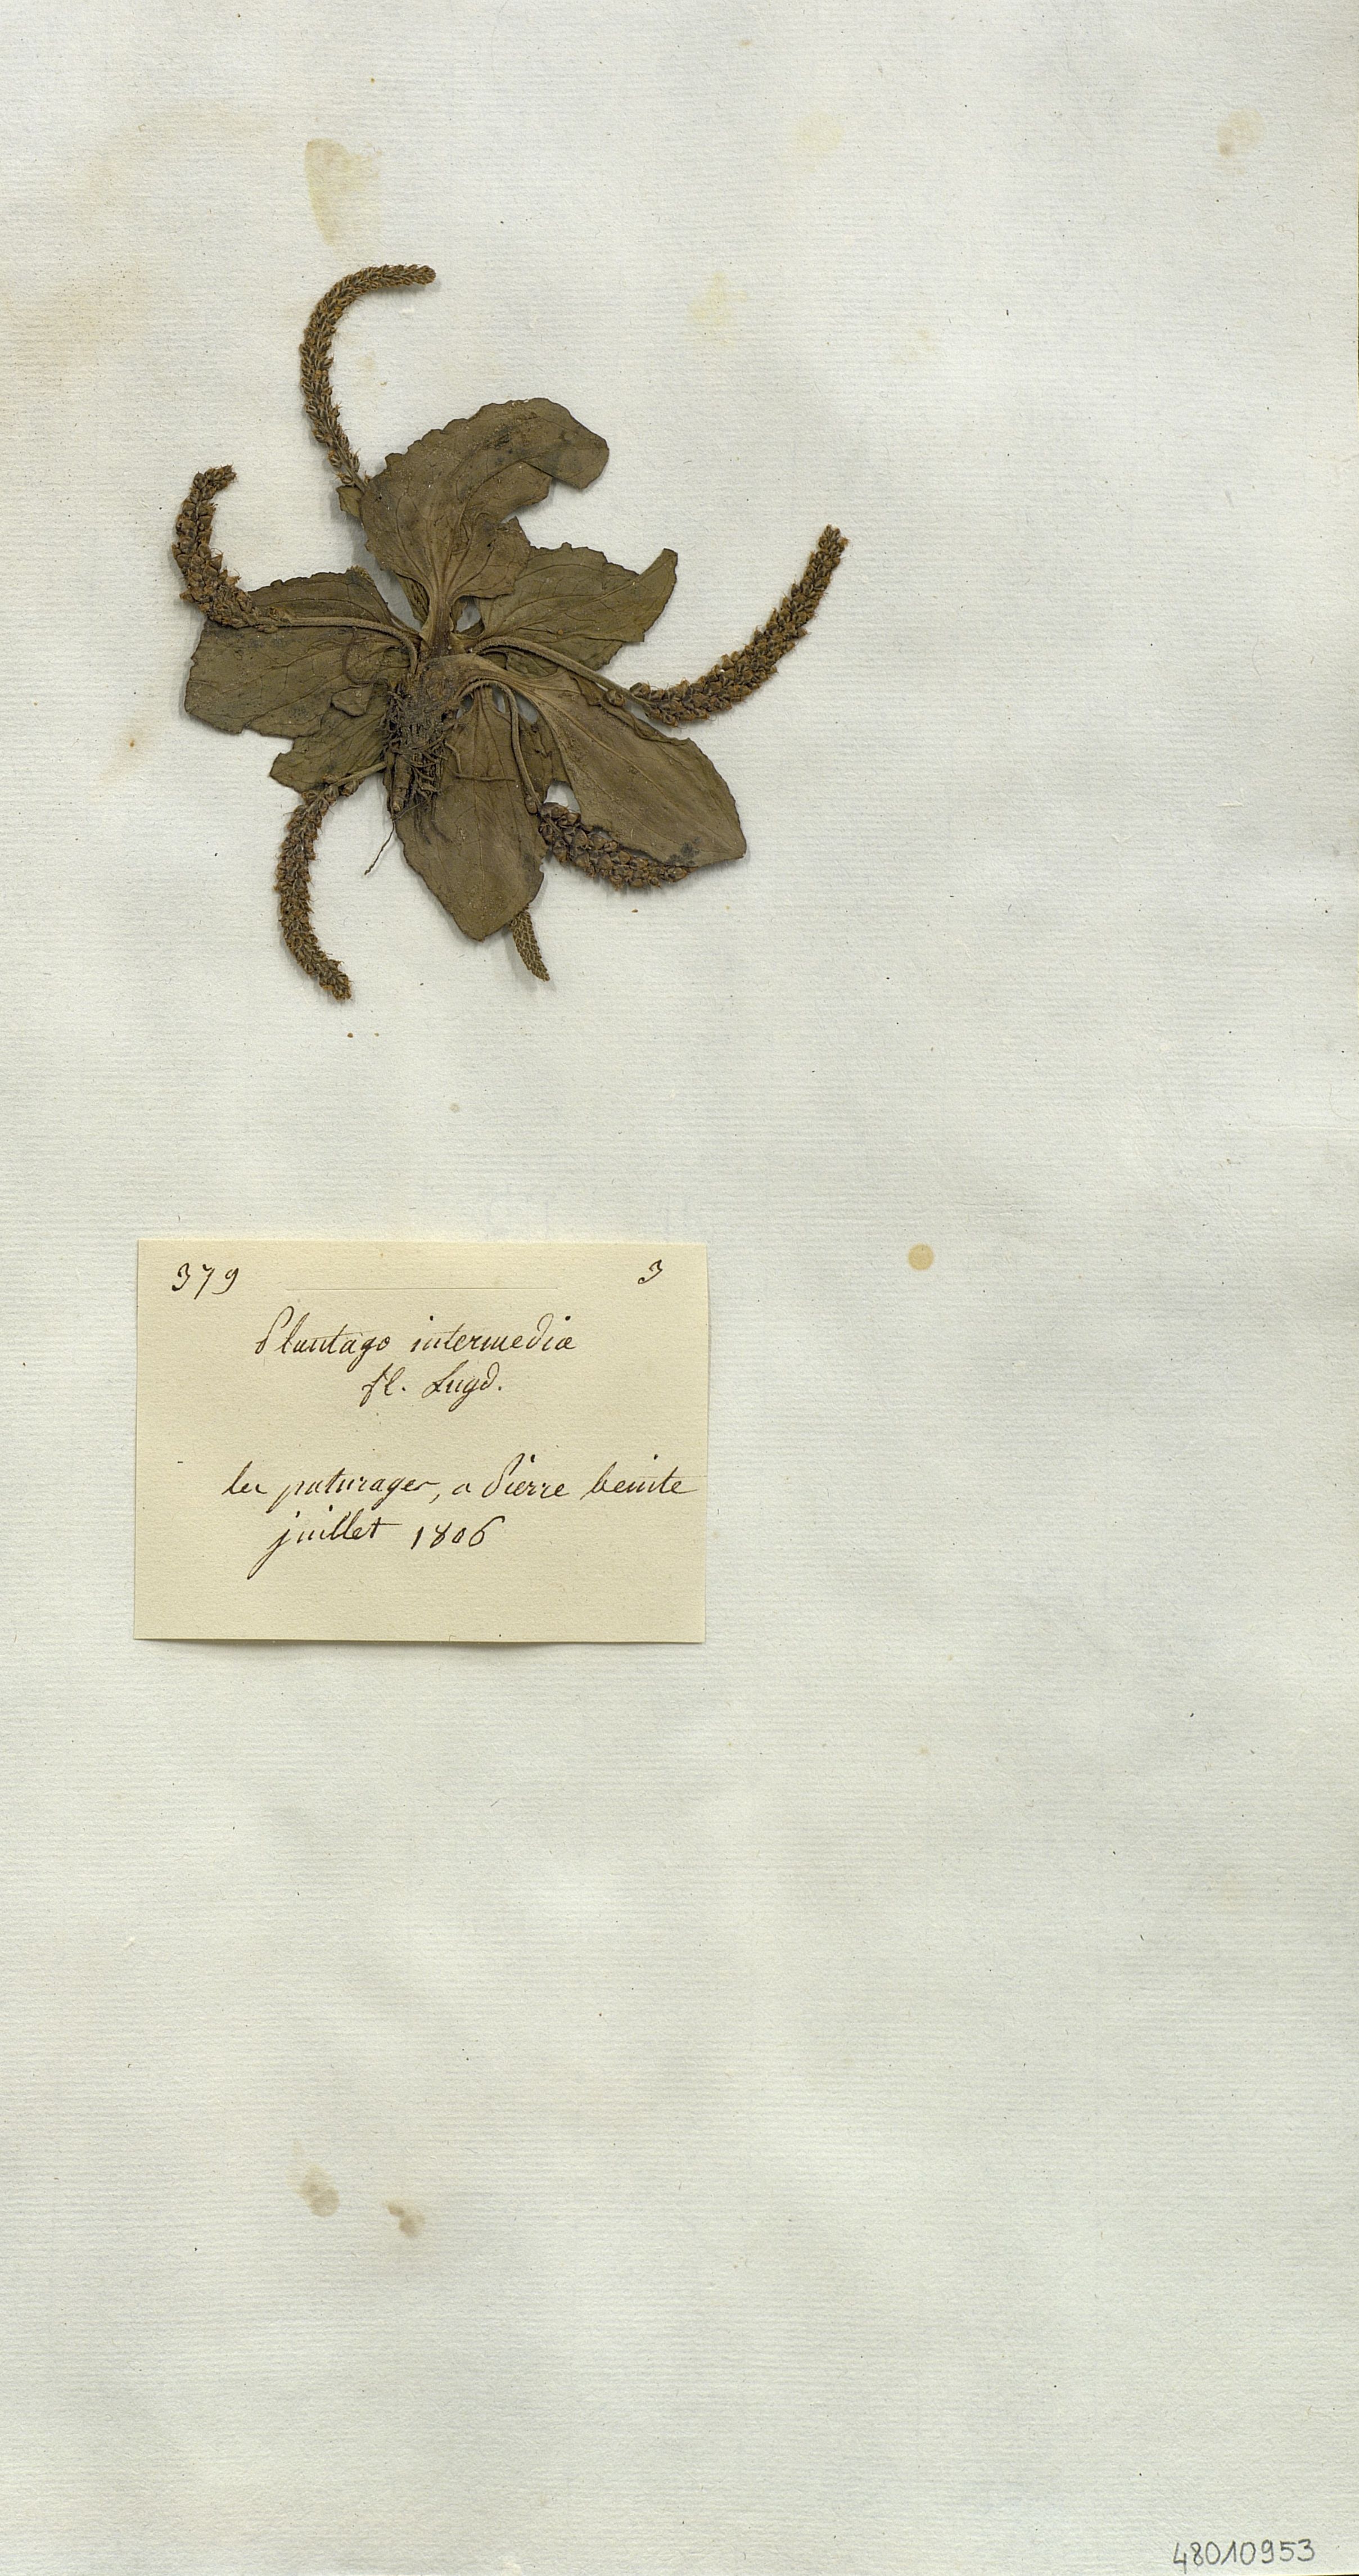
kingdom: Plantae
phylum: Tracheophyta
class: Magnoliopsida
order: Lamiales
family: Plantaginaceae
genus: Plantago
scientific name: Plantago intermedia
